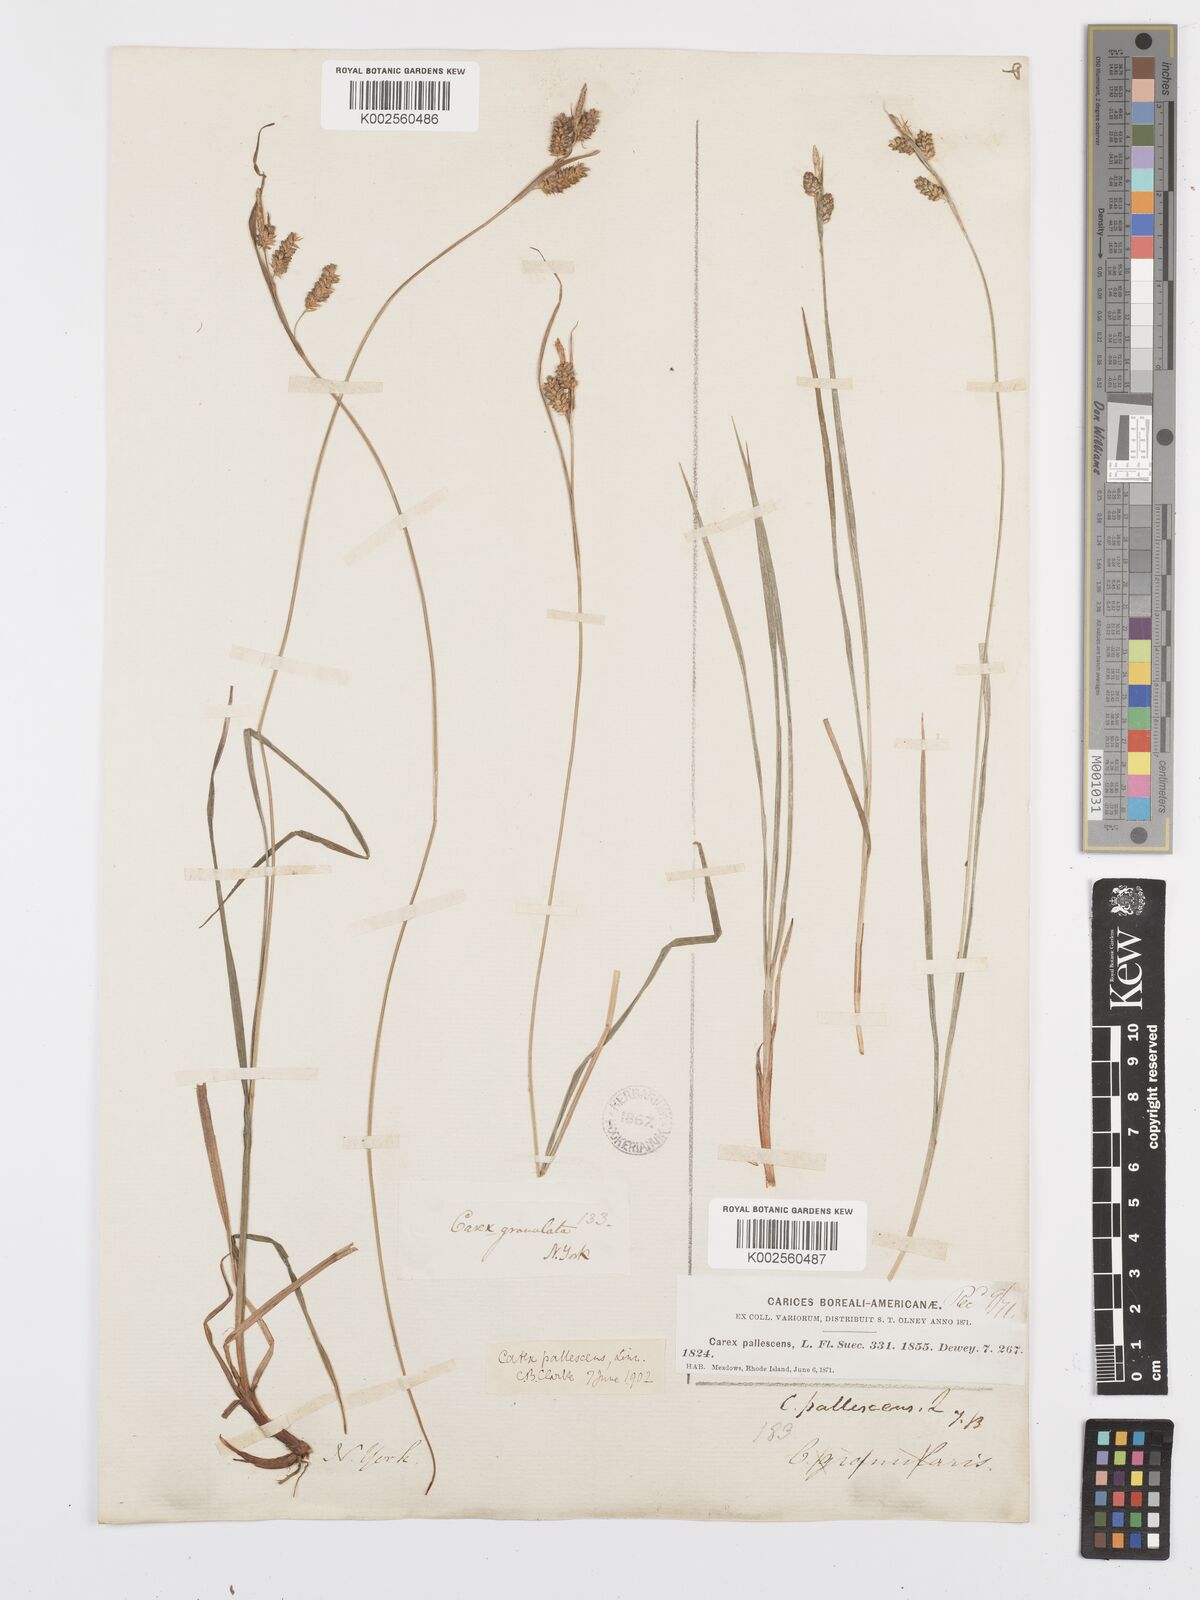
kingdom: Plantae
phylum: Tracheophyta
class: Liliopsida
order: Poales
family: Cyperaceae
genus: Carex
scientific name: Carex pallescens
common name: Pale sedge
